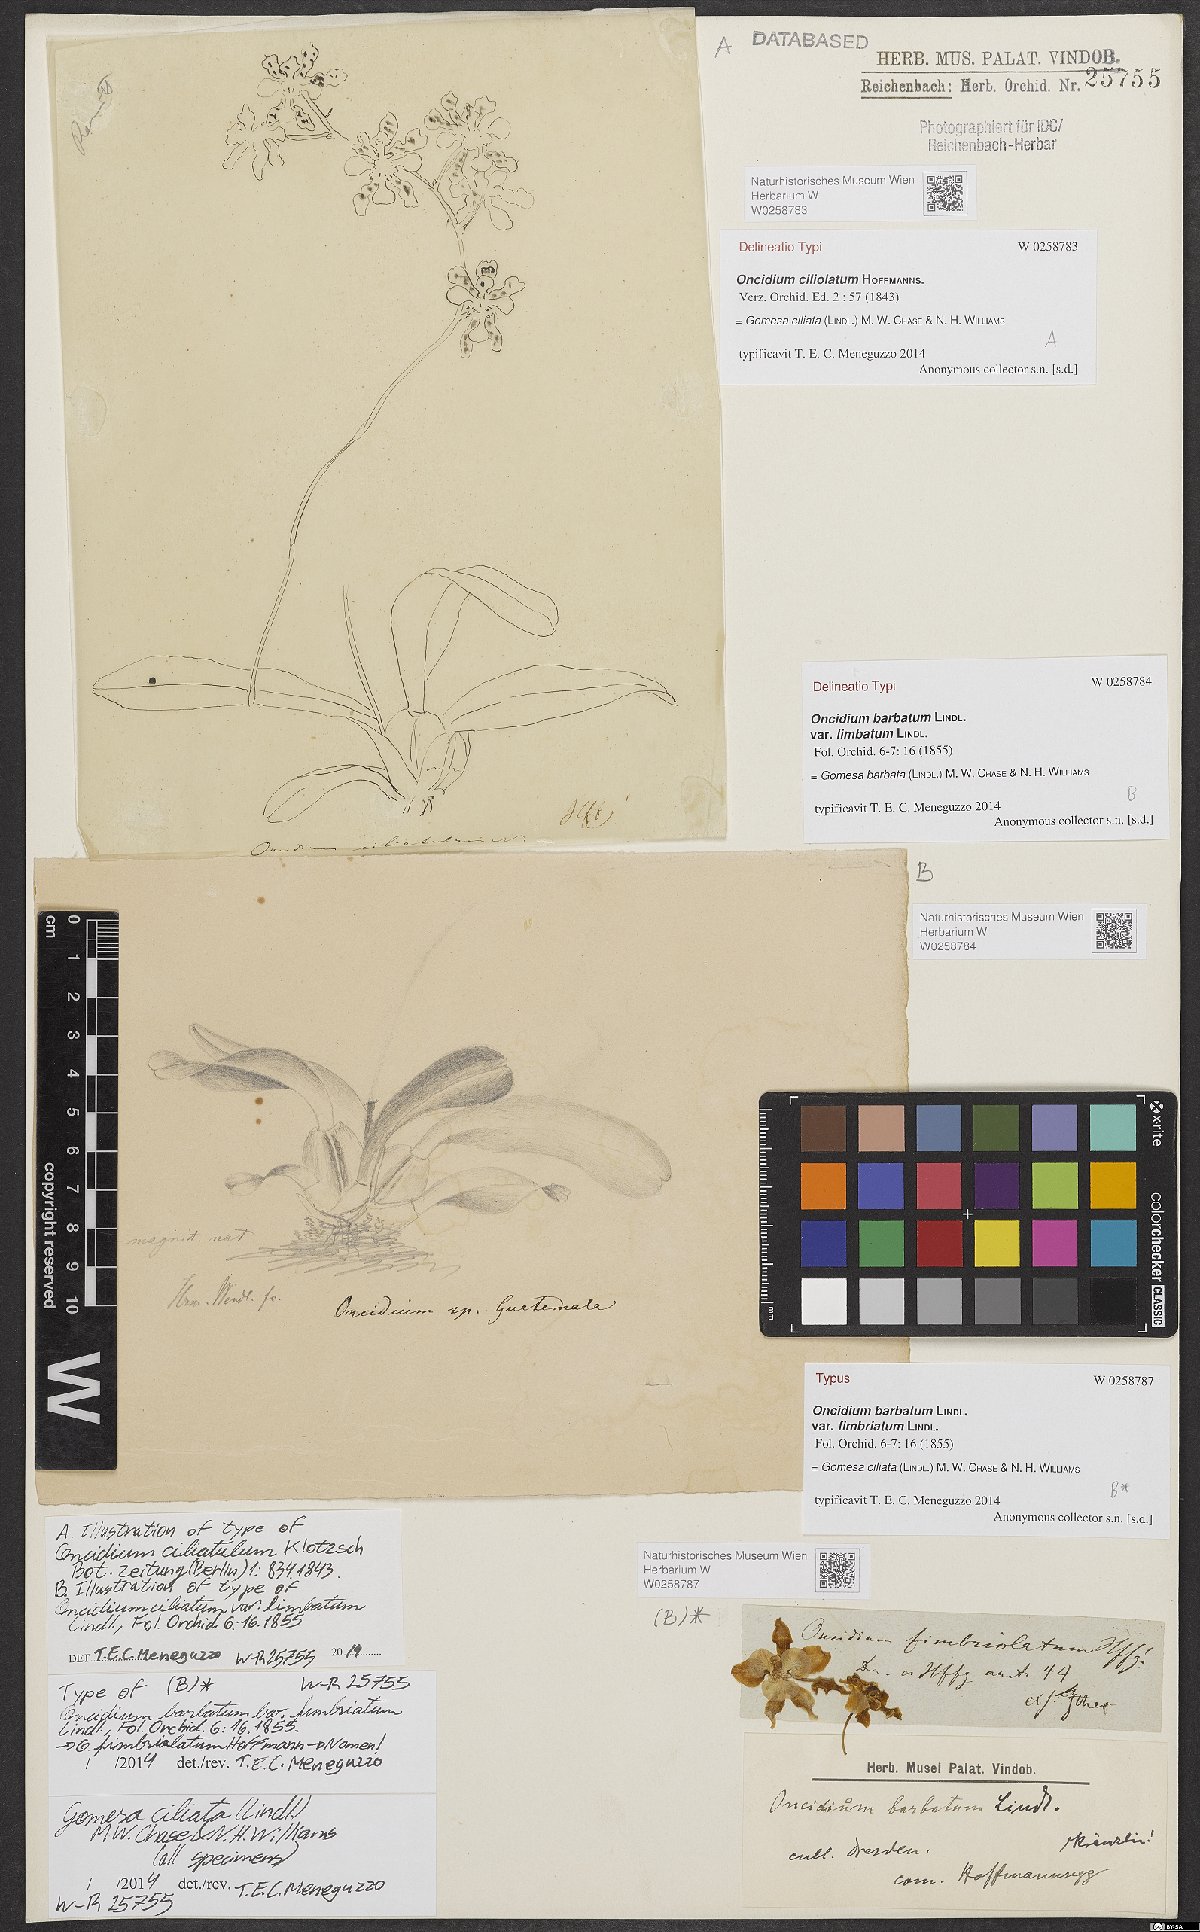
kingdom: Plantae
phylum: Tracheophyta
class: Liliopsida
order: Asparagales
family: Orchidaceae
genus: Gomesa
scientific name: Gomesa ciliata
